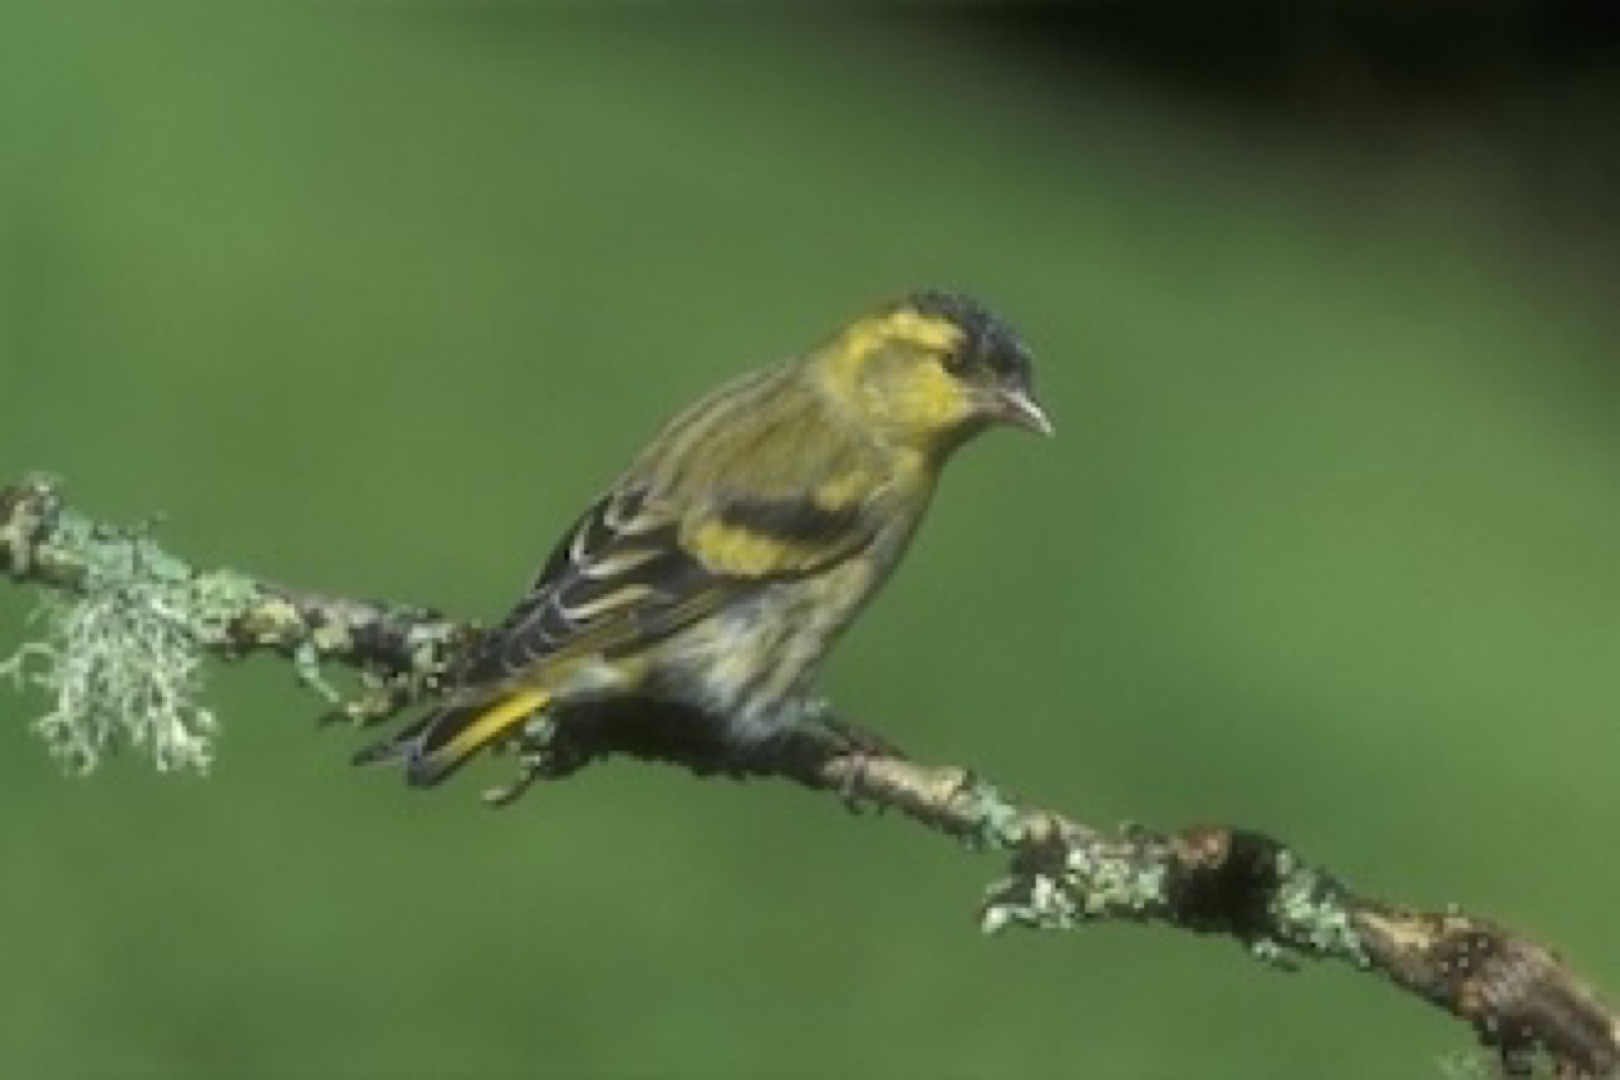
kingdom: Animalia
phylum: Chordata
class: Aves
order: Passeriformes
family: Fringillidae
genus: Spinus
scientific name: Spinus spinus
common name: Grønsisken
